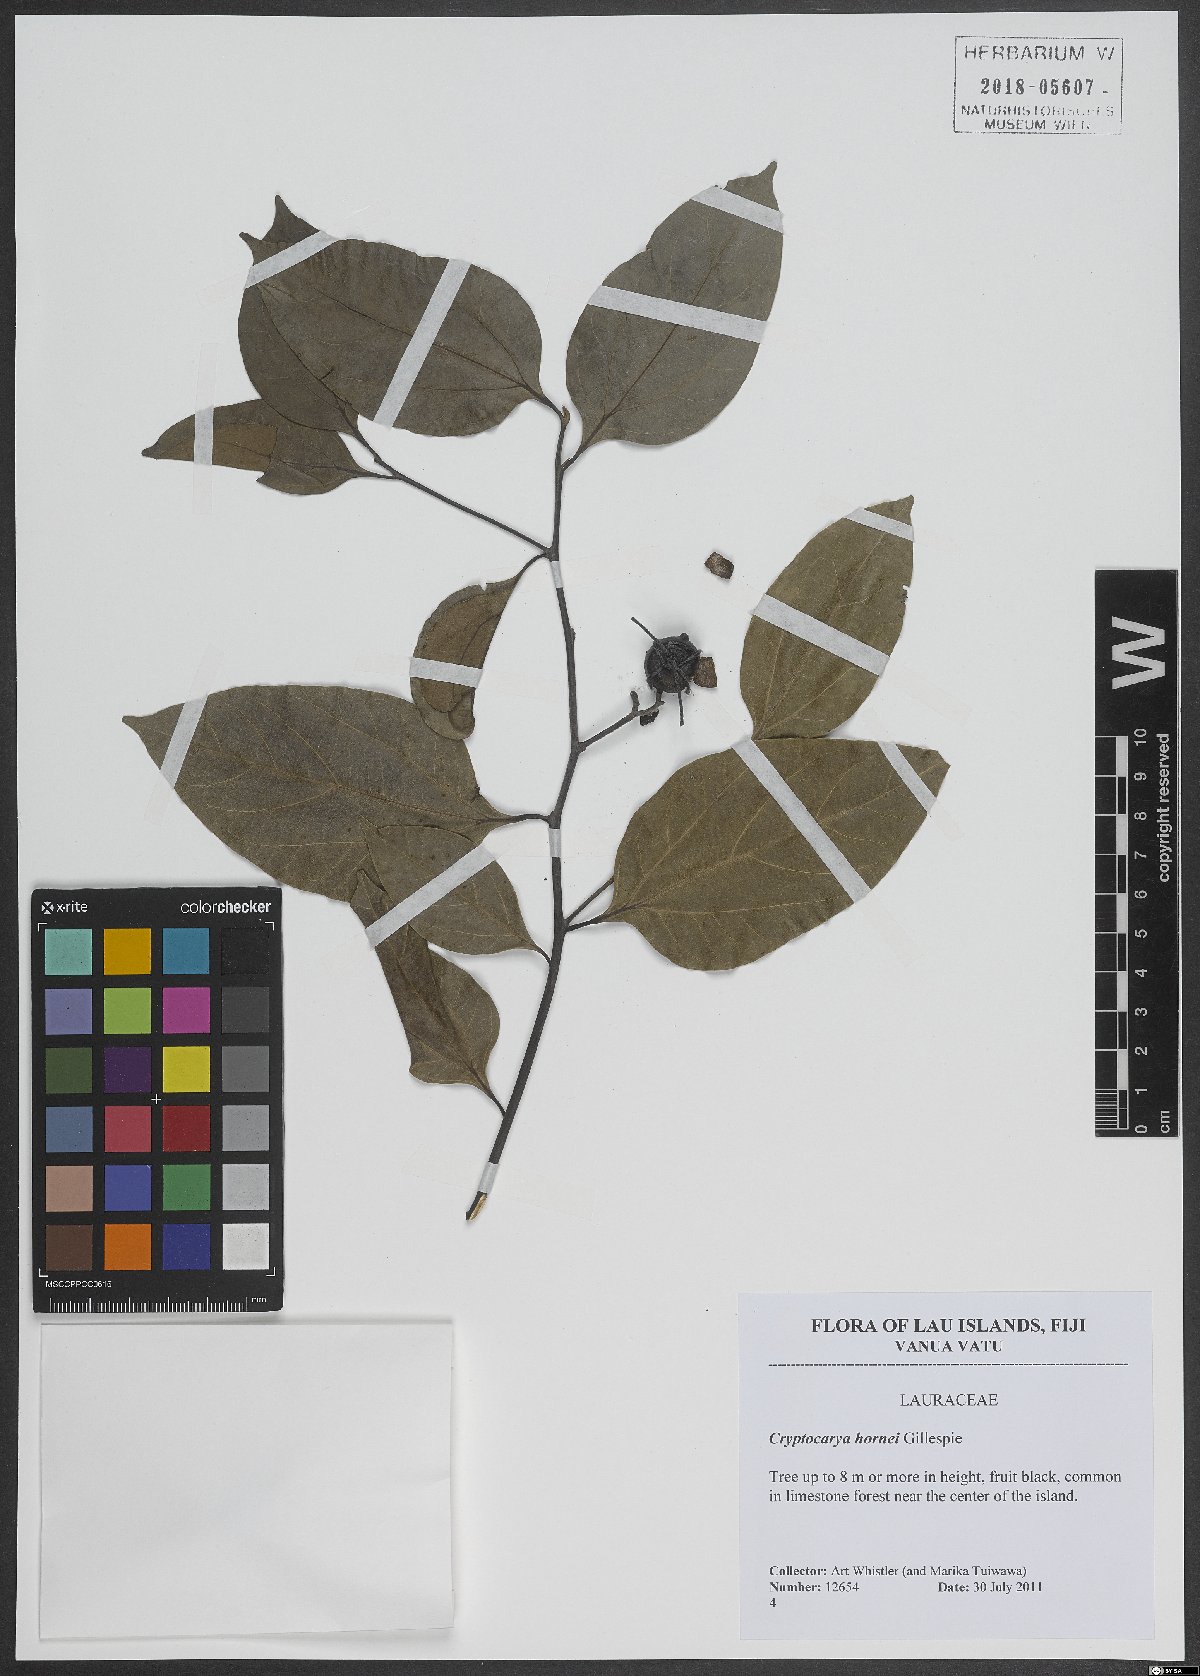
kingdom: Plantae
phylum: Tracheophyta
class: Magnoliopsida
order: Laurales
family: Lauraceae
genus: Cryptocarya
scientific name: Cryptocarya hornei
